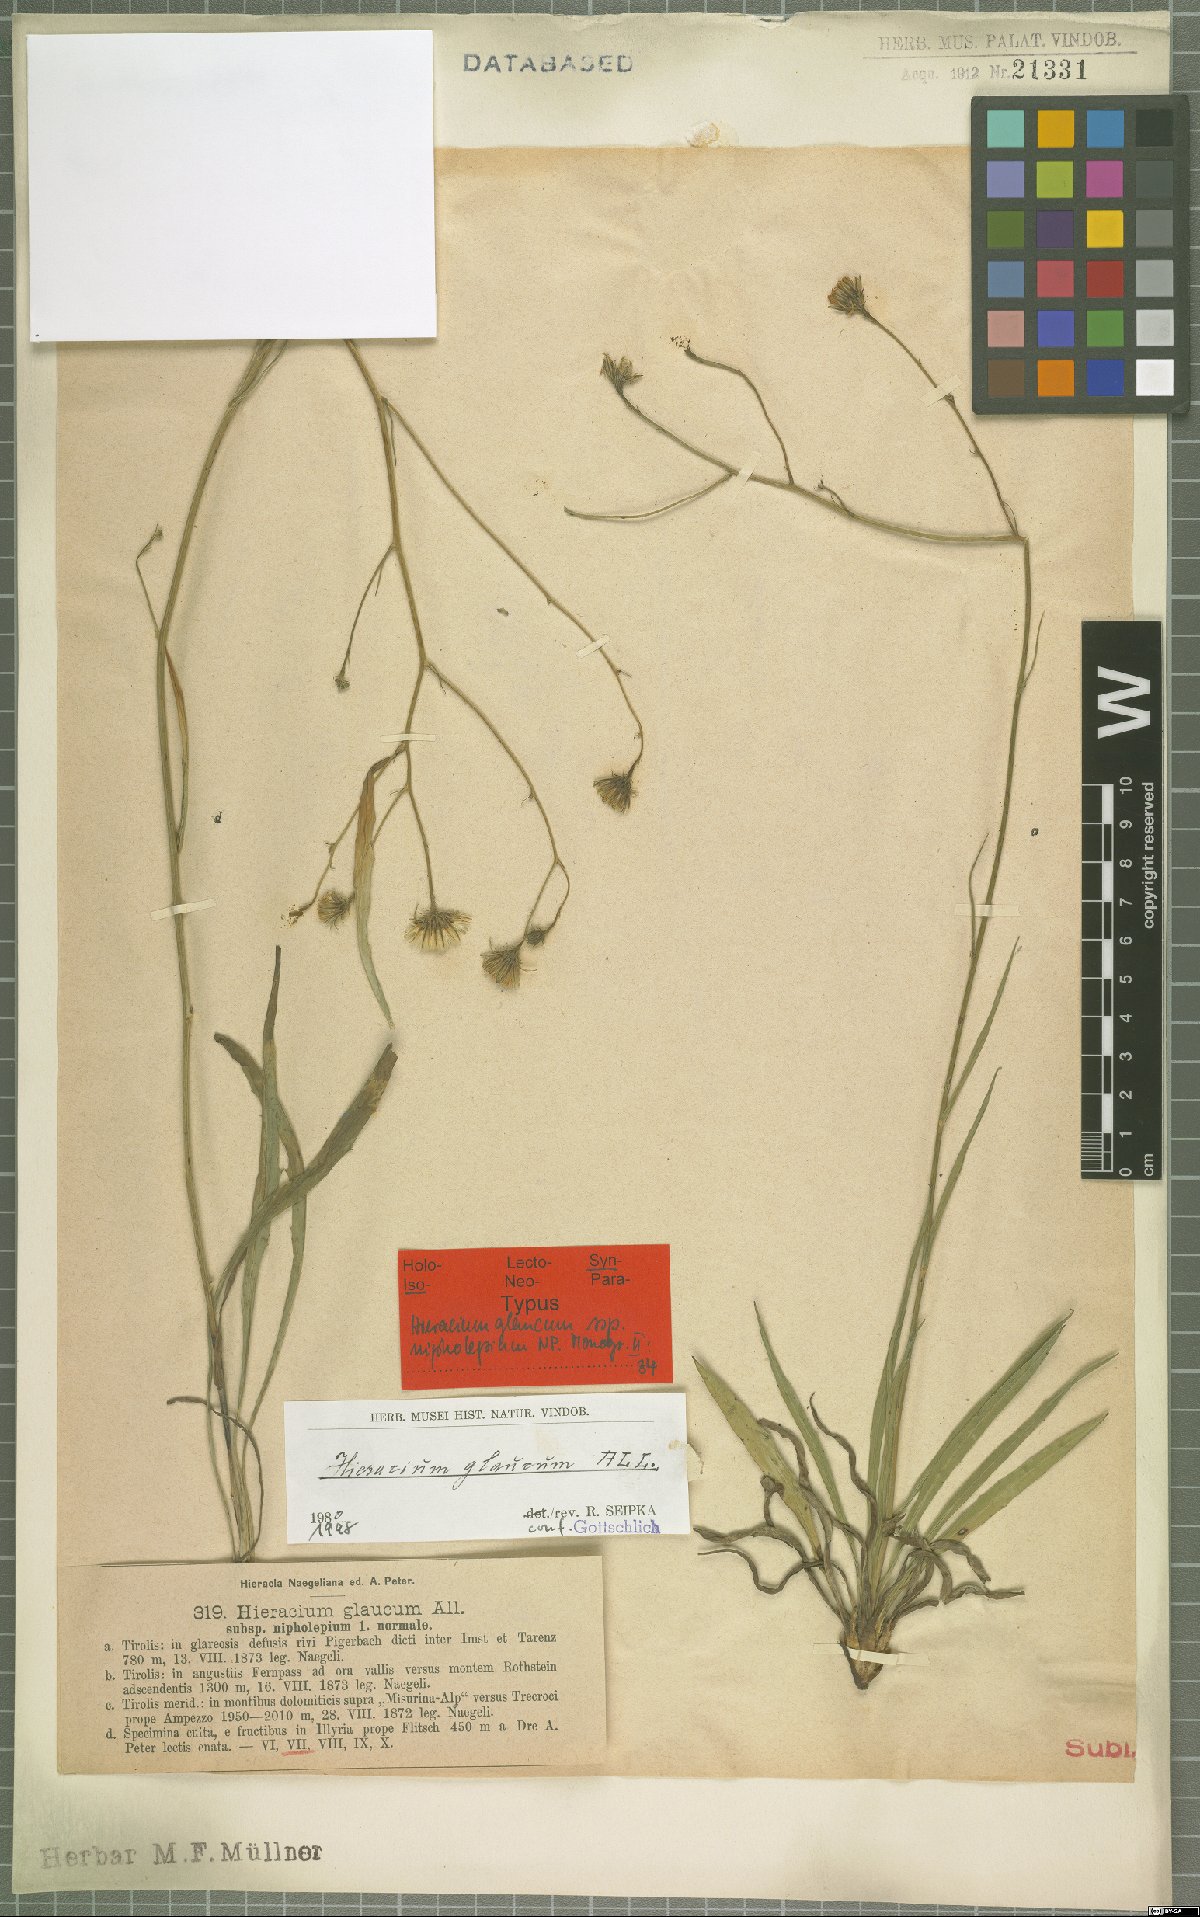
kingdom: Plantae
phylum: Tracheophyta
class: Magnoliopsida
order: Asterales
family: Asteraceae
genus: Hieracium
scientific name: Hieracium glaucum
